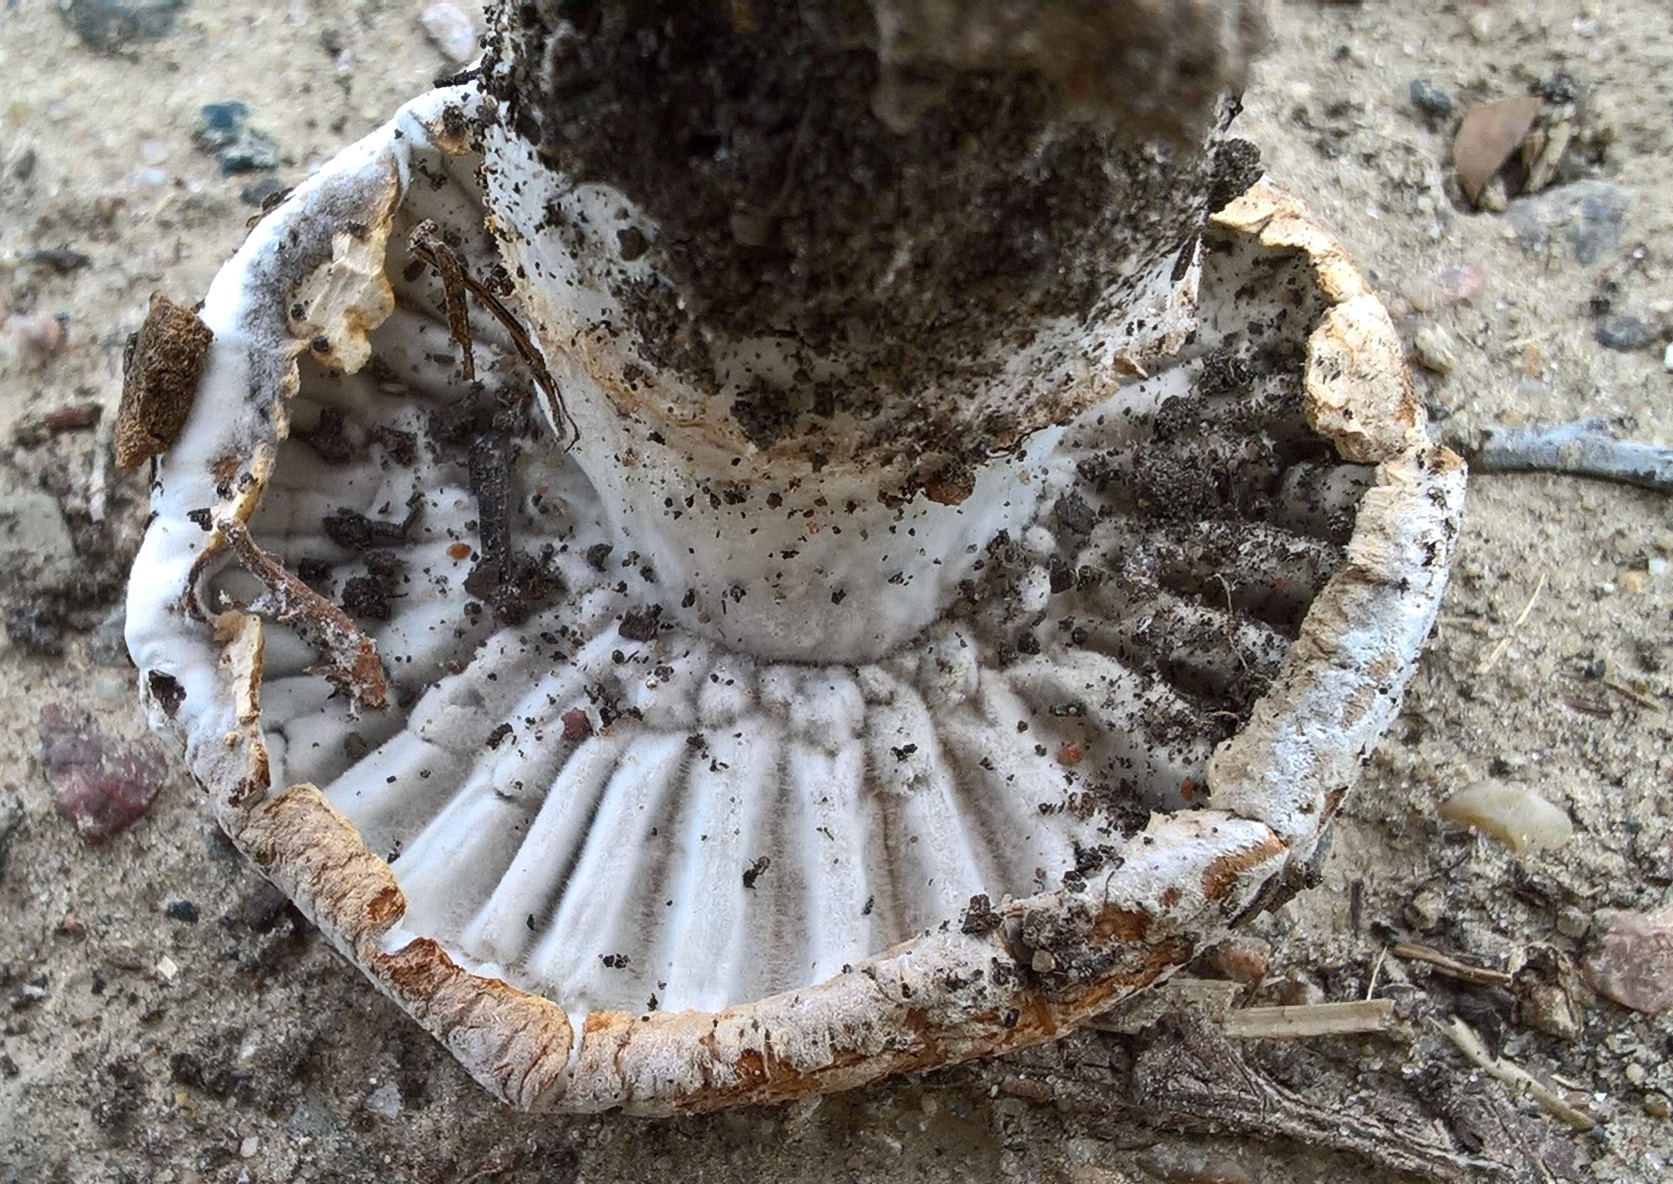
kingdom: Fungi
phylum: Ascomycota
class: Sordariomycetes
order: Hypocreales
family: Hypocreaceae
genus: Hypomyces
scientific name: Hypomyces
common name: snylteskorpe
